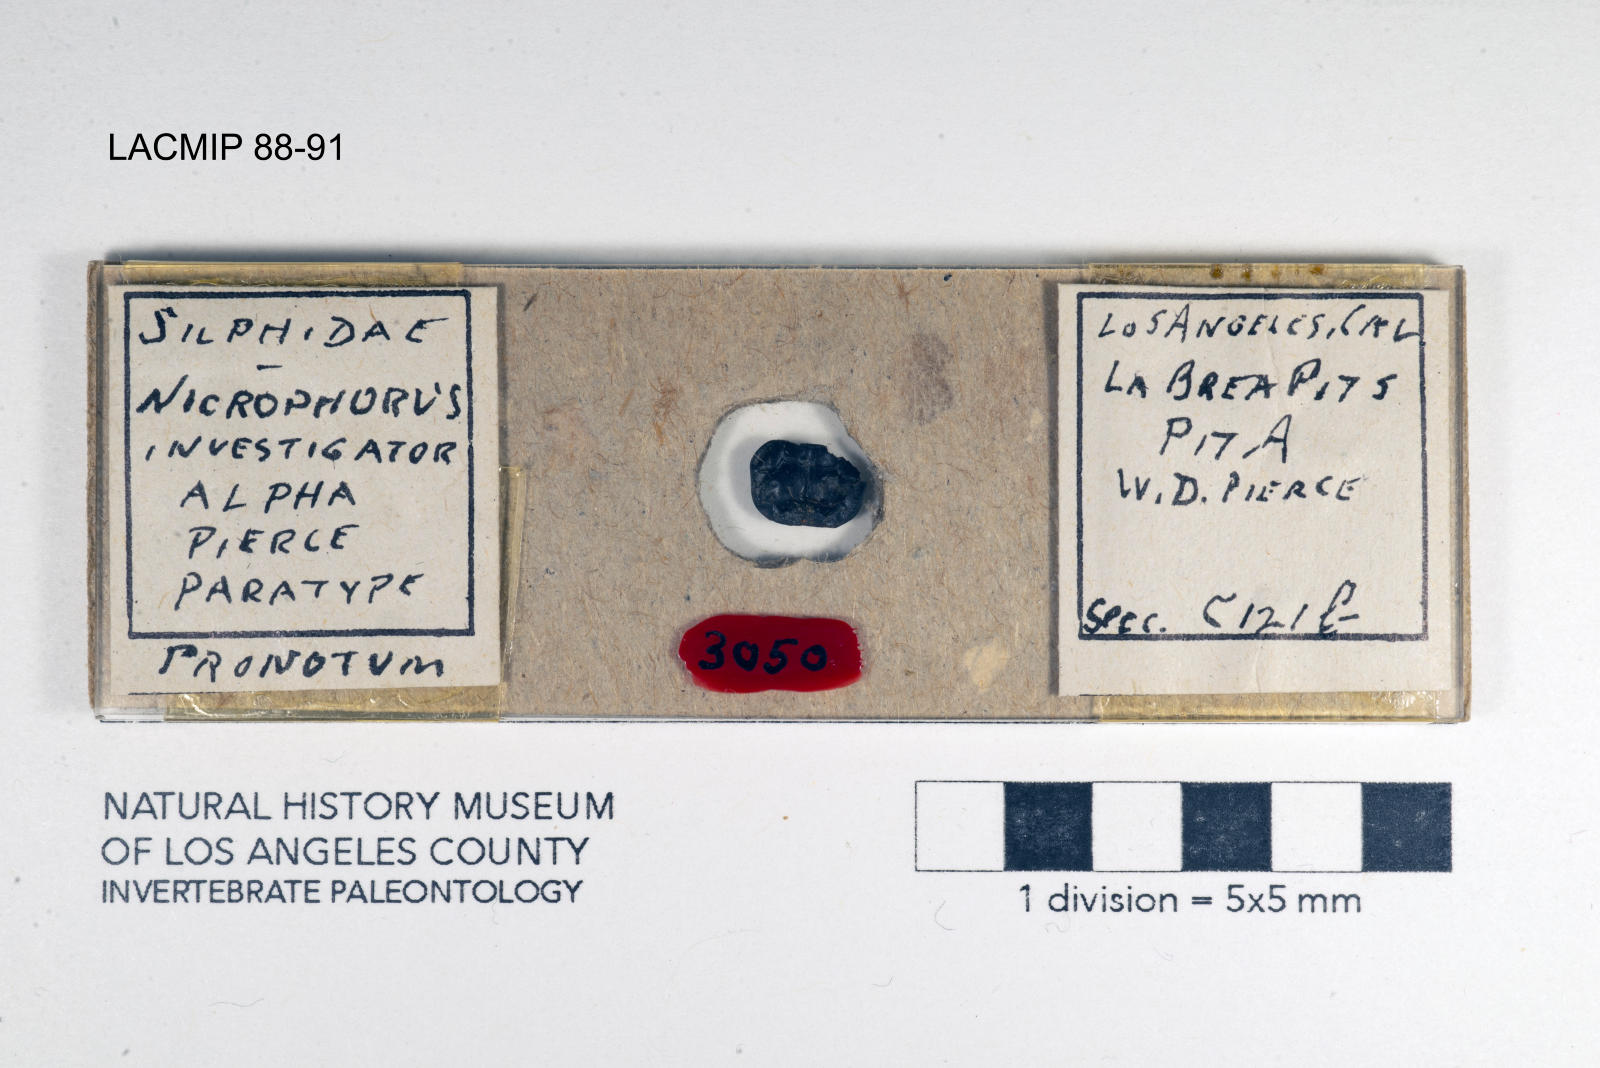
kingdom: Animalia
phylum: Arthropoda
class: Insecta
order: Coleoptera
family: Staphylinidae
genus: Nicrophorus
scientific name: Nicrophorus nigrita
